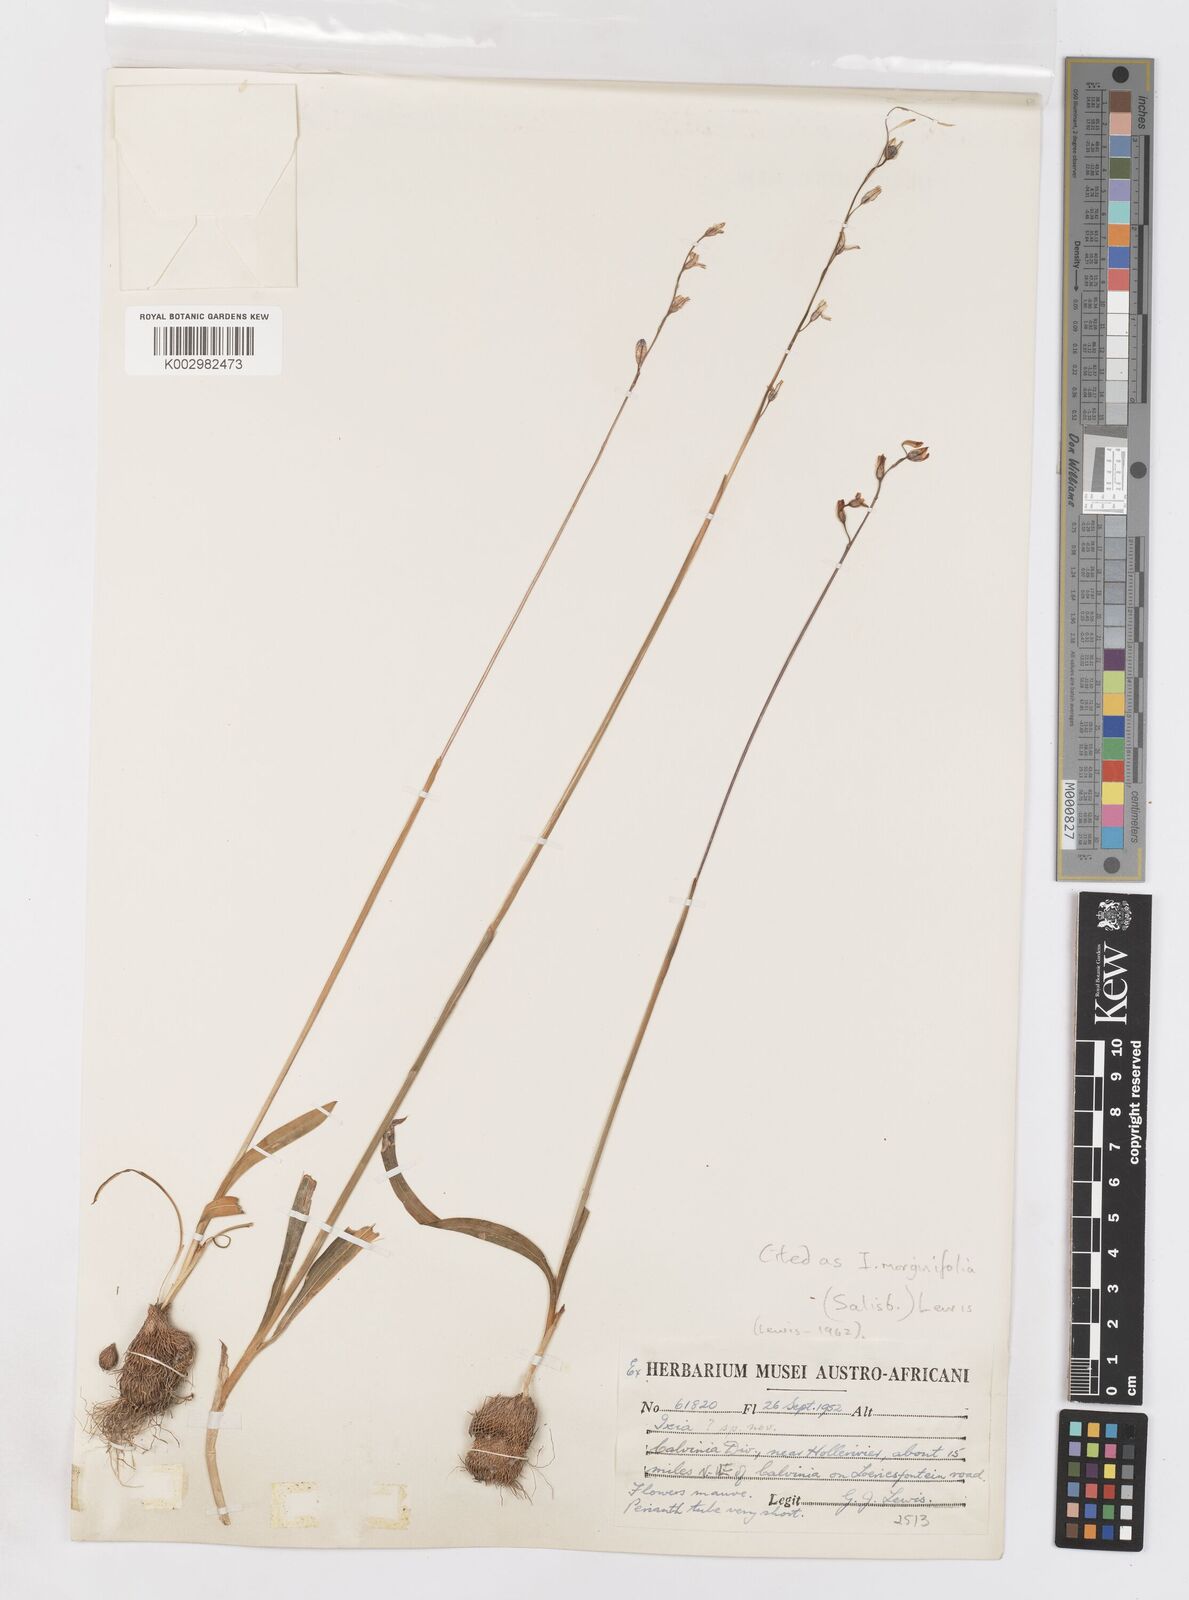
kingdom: Plantae
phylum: Tracheophyta
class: Liliopsida
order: Asparagales
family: Iridaceae
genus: Ixia
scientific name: Ixia marginifolia
